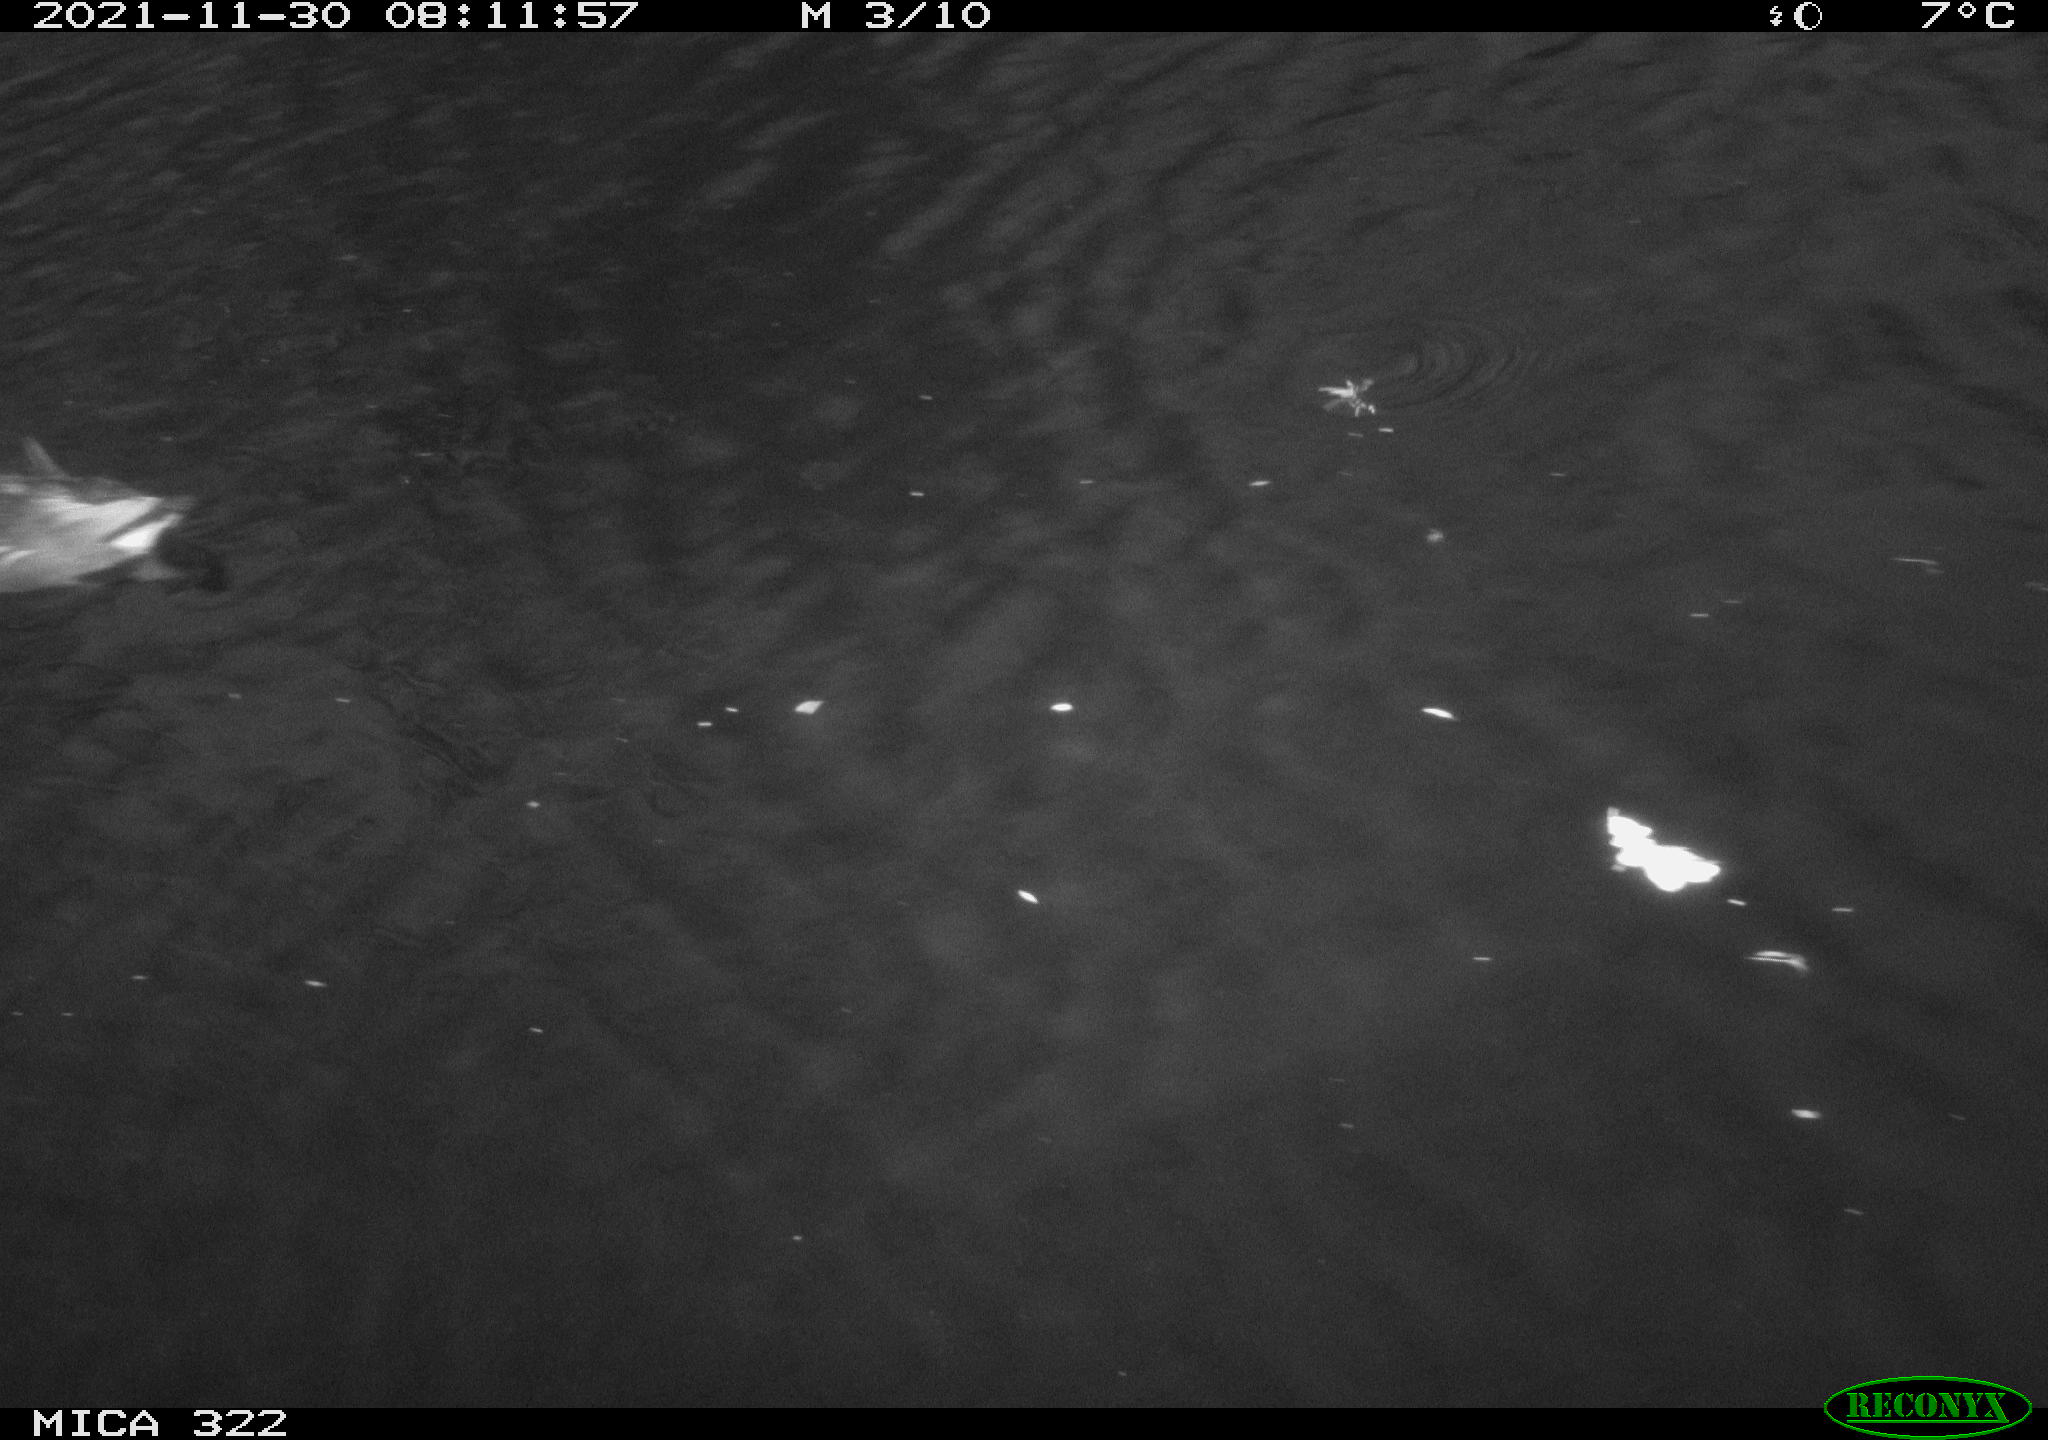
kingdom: Animalia
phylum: Chordata
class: Aves
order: Gruiformes
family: Rallidae
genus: Gallinula
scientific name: Gallinula chloropus
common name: Common moorhen
